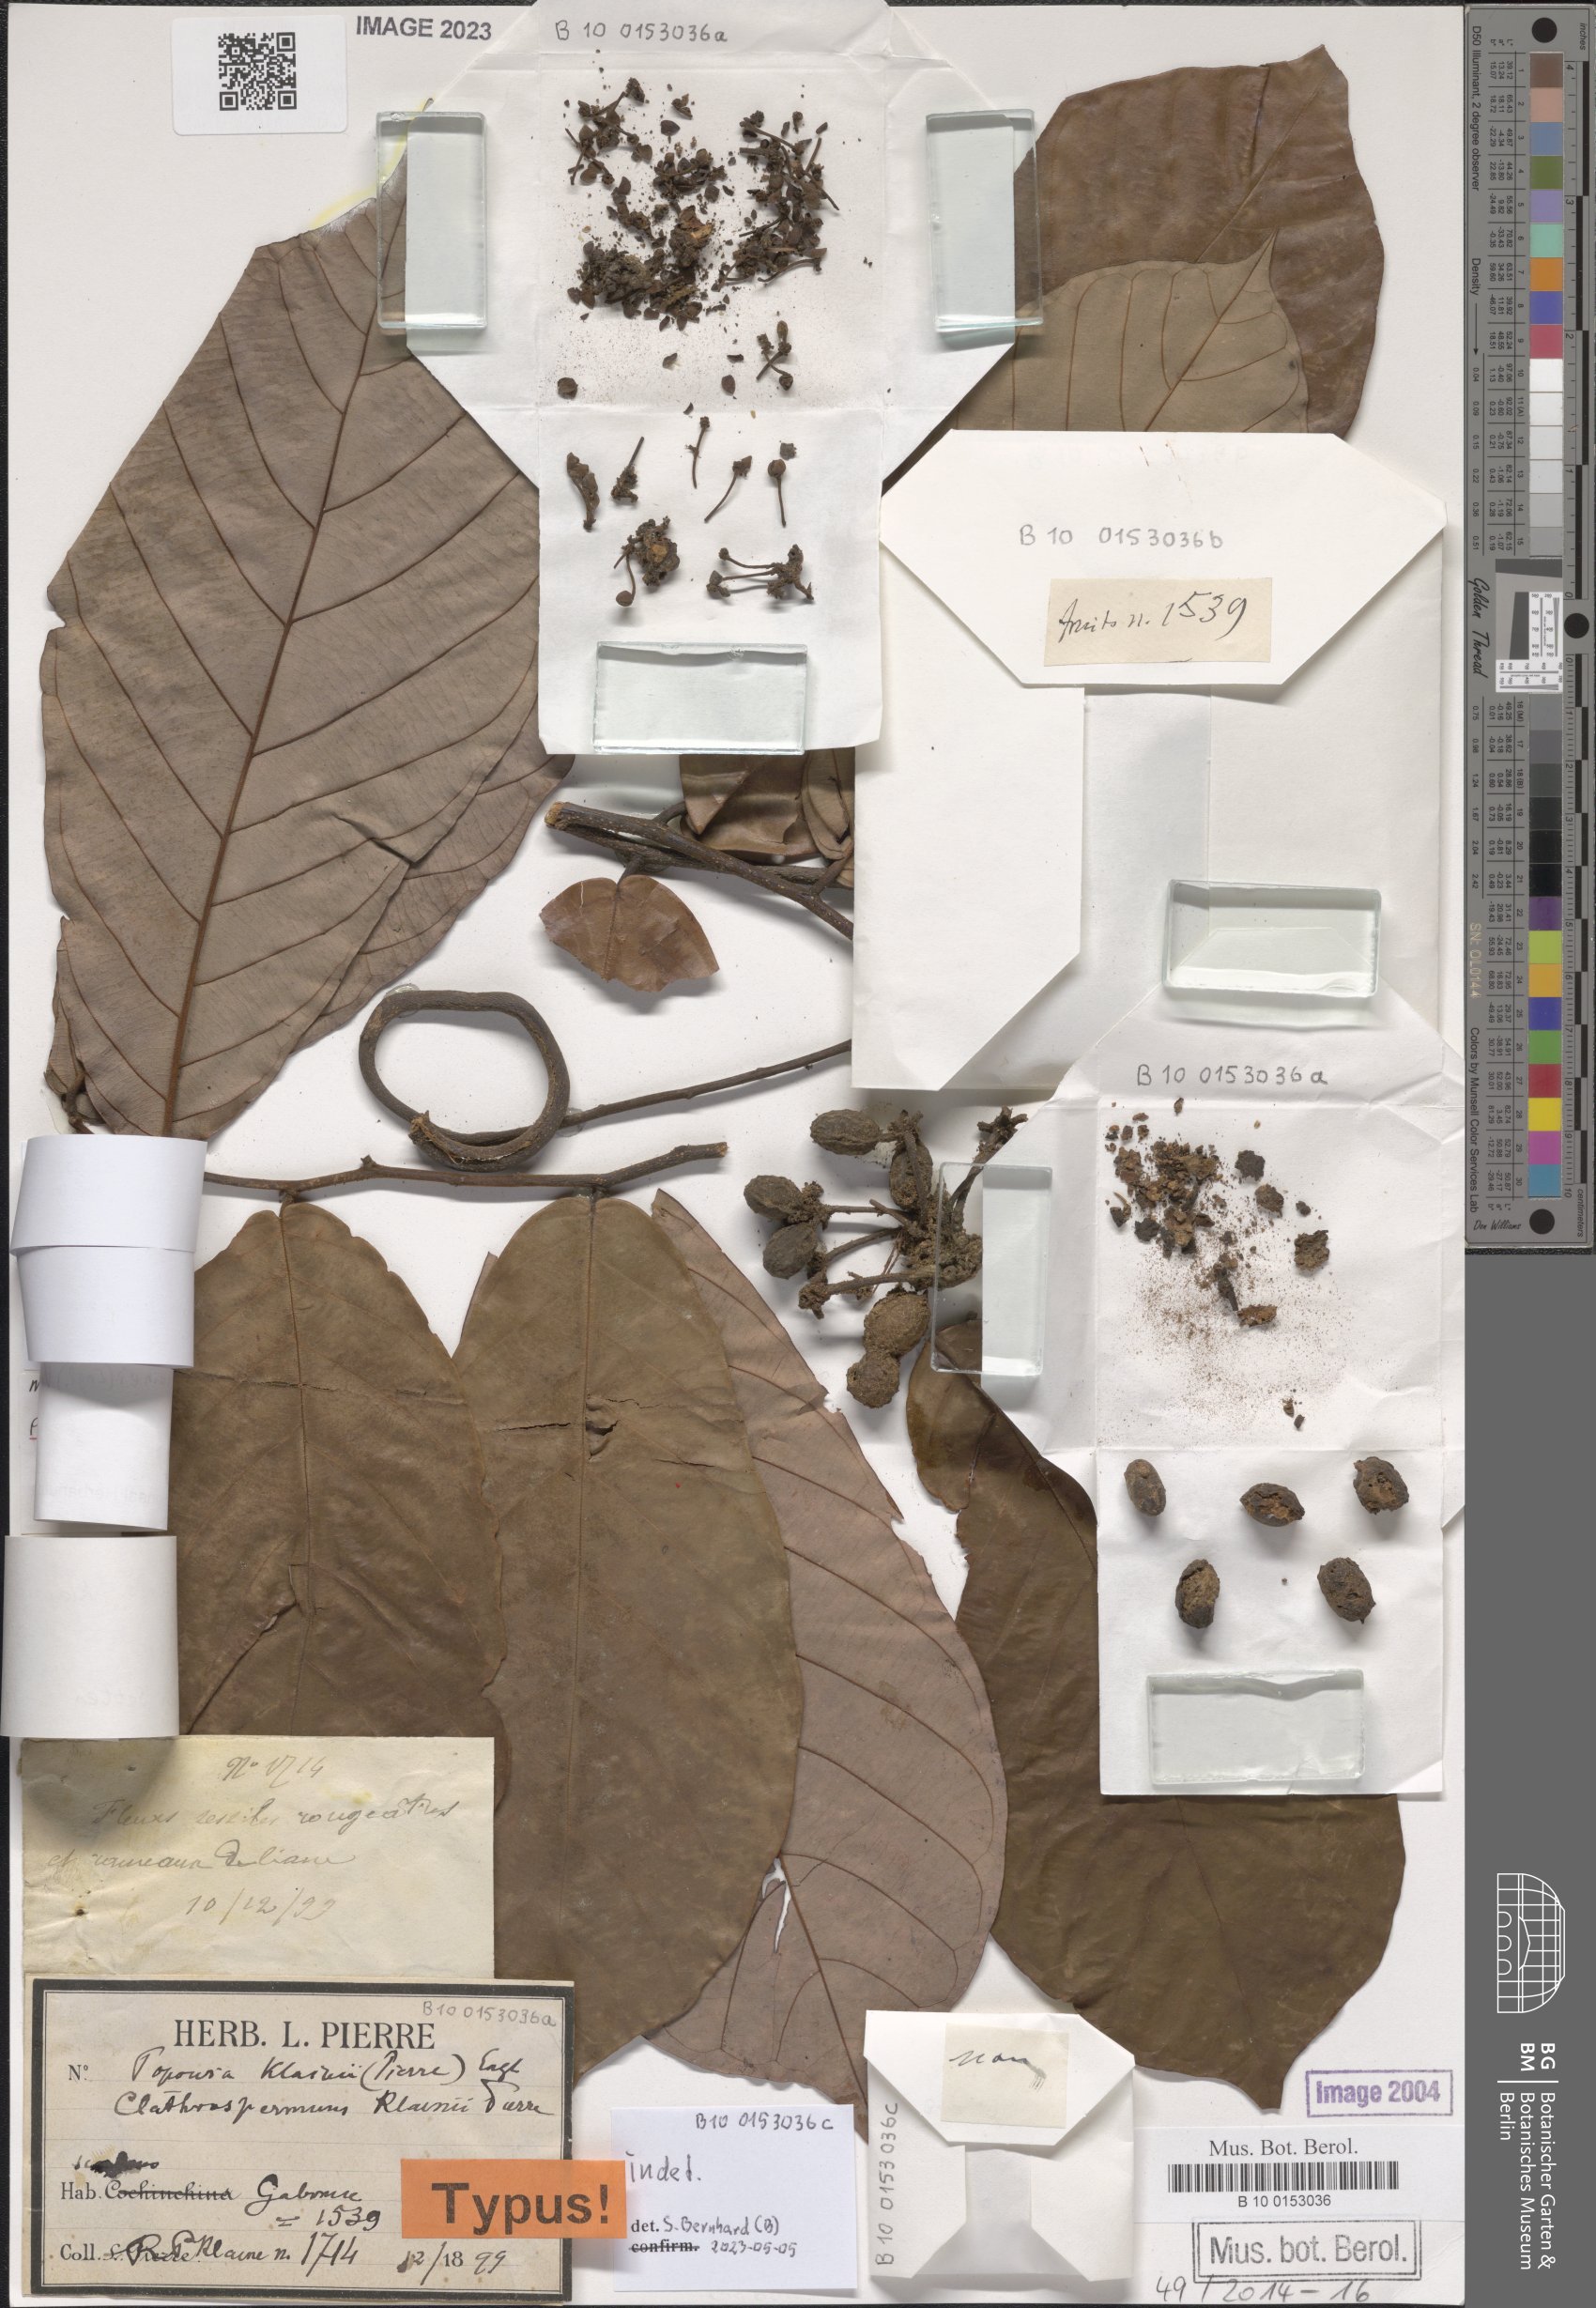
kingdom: Plantae
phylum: Tracheophyta
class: Magnoliopsida
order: Magnoliales
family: Annonaceae
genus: Monanthotaxis
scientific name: Monanthotaxis klainii
